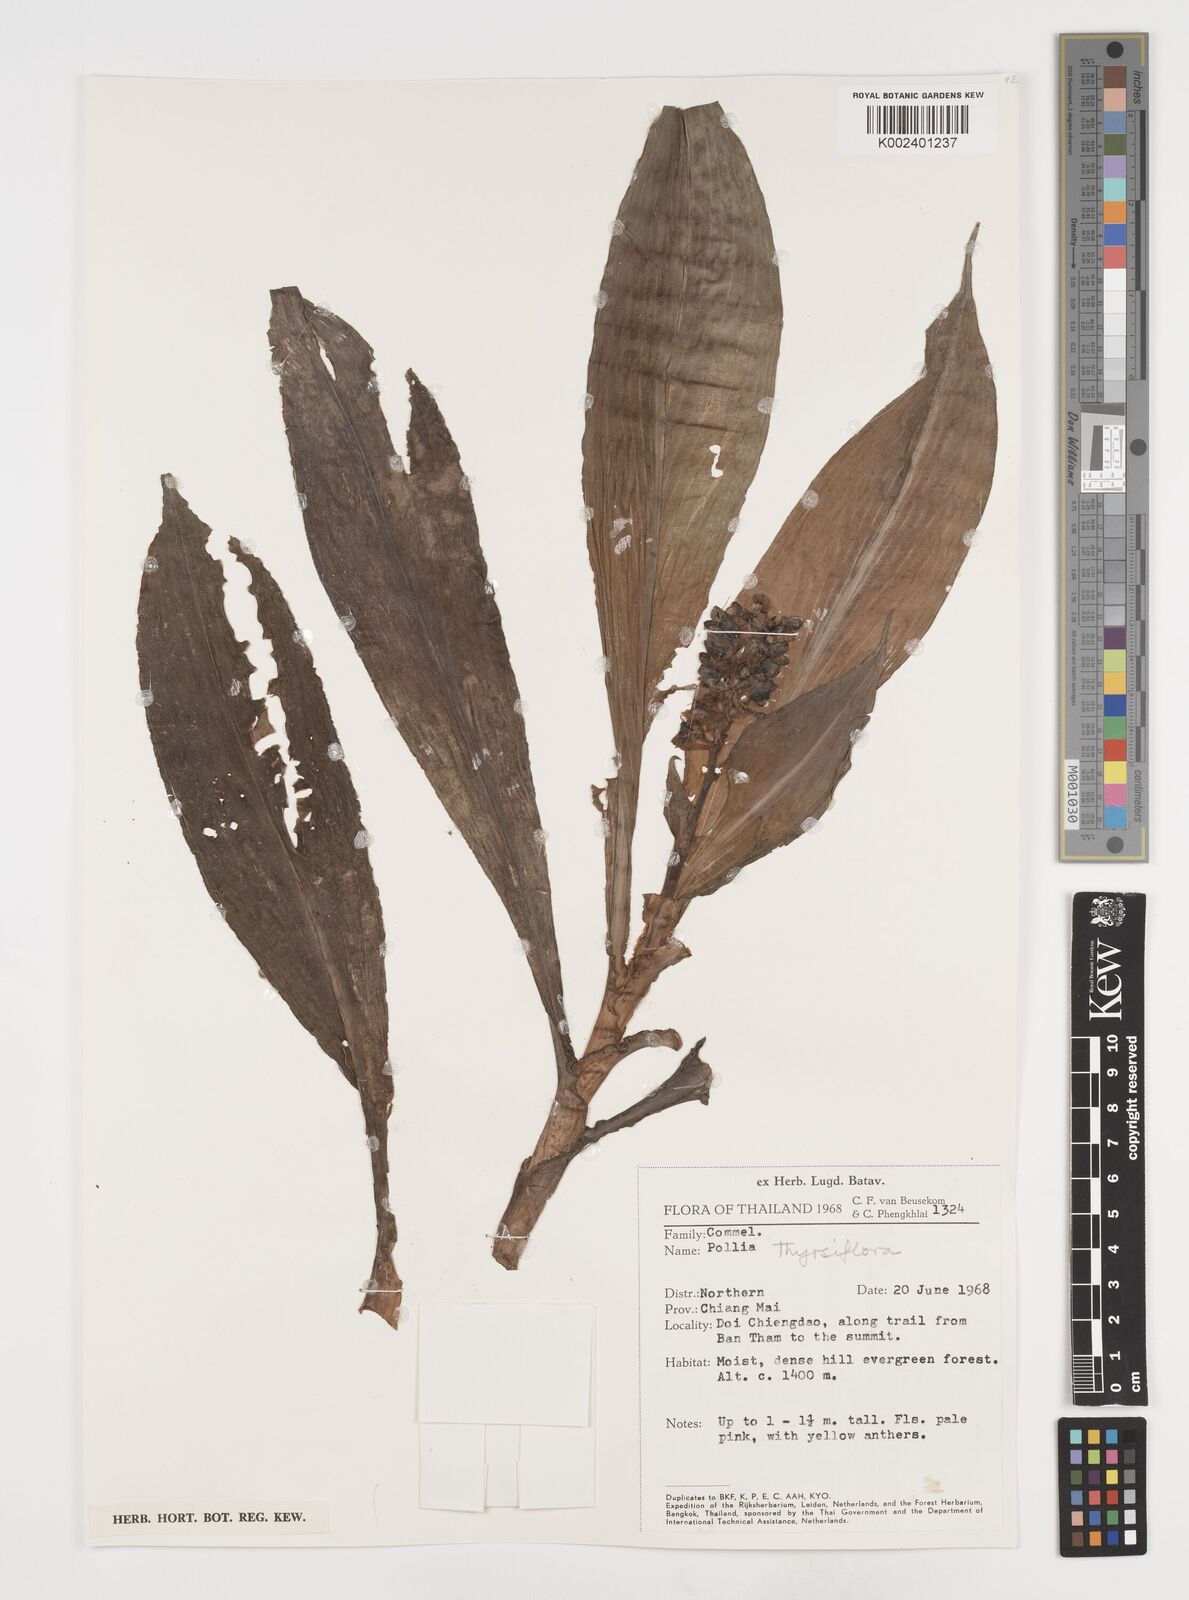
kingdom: Plantae
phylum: Tracheophyta
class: Liliopsida
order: Commelinales
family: Commelinaceae
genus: Pollia
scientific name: Pollia thyrsiflora
